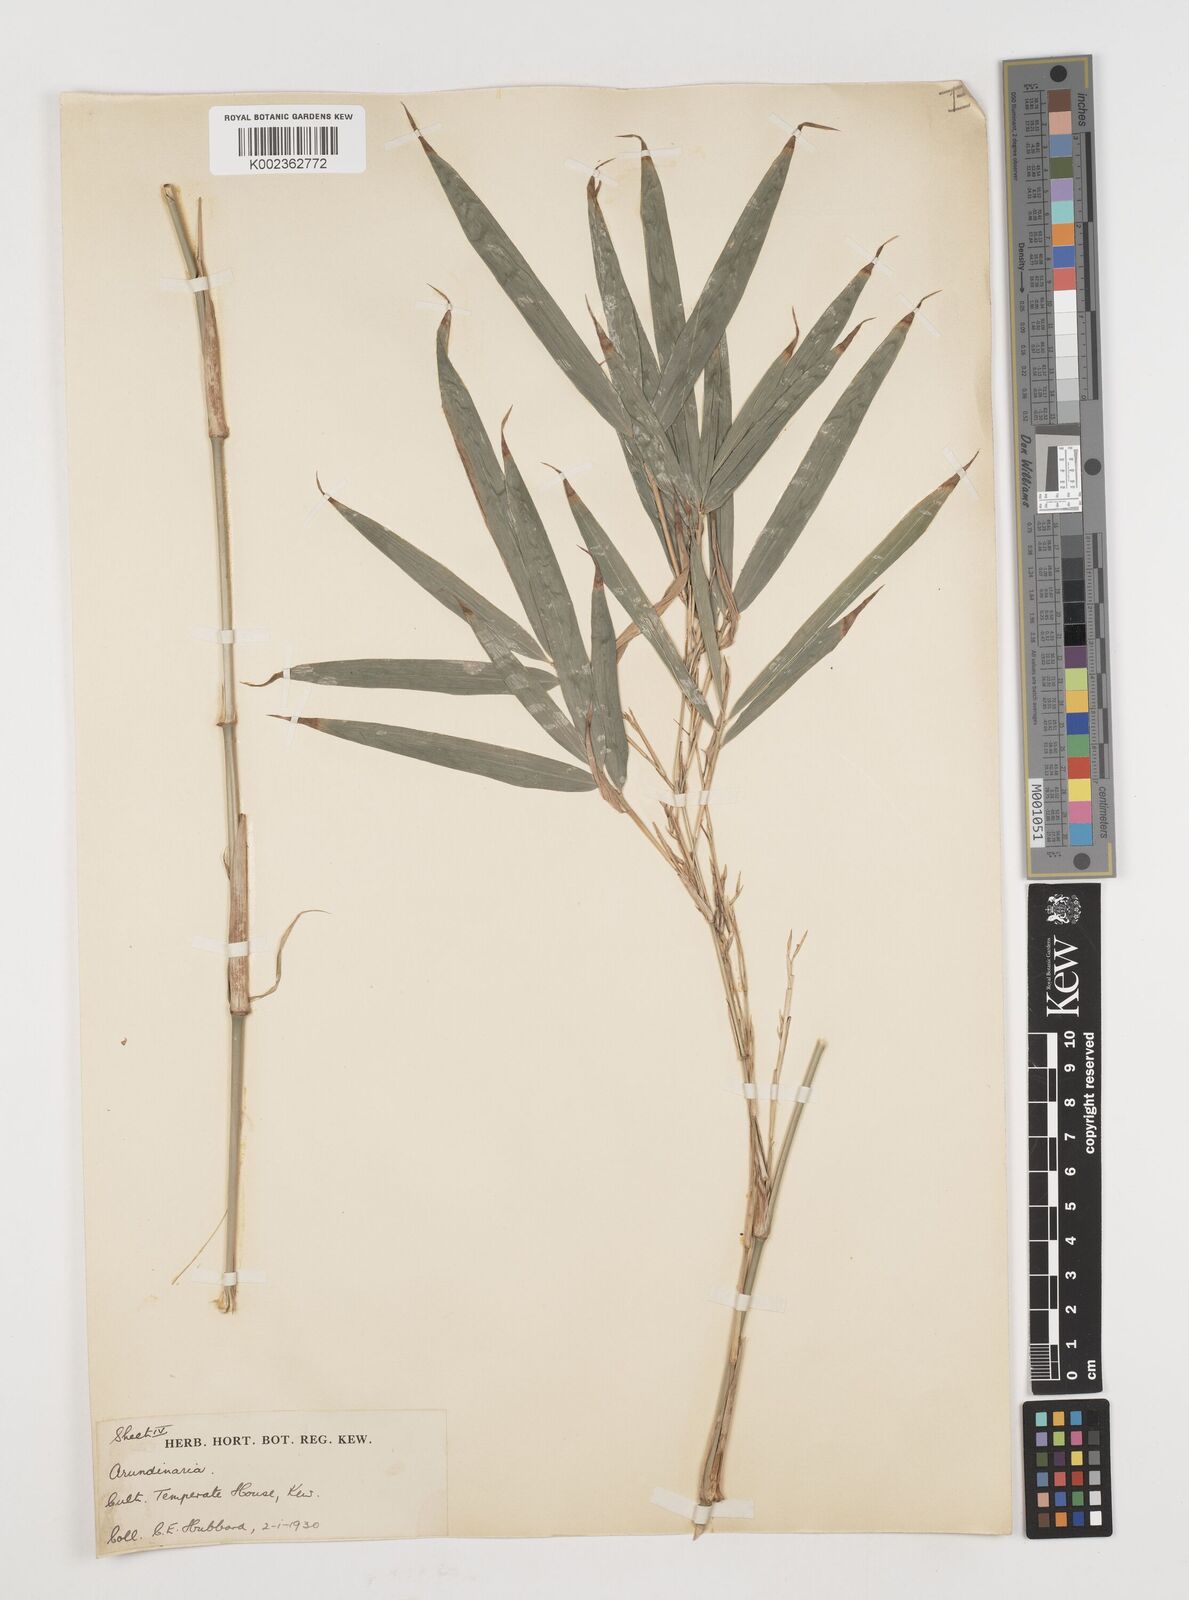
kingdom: Plantae
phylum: Tracheophyta
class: Liliopsida
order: Poales
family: Poaceae
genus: Chimonobambusa
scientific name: Chimonobambusa marmorea
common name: Marbled bamboo
